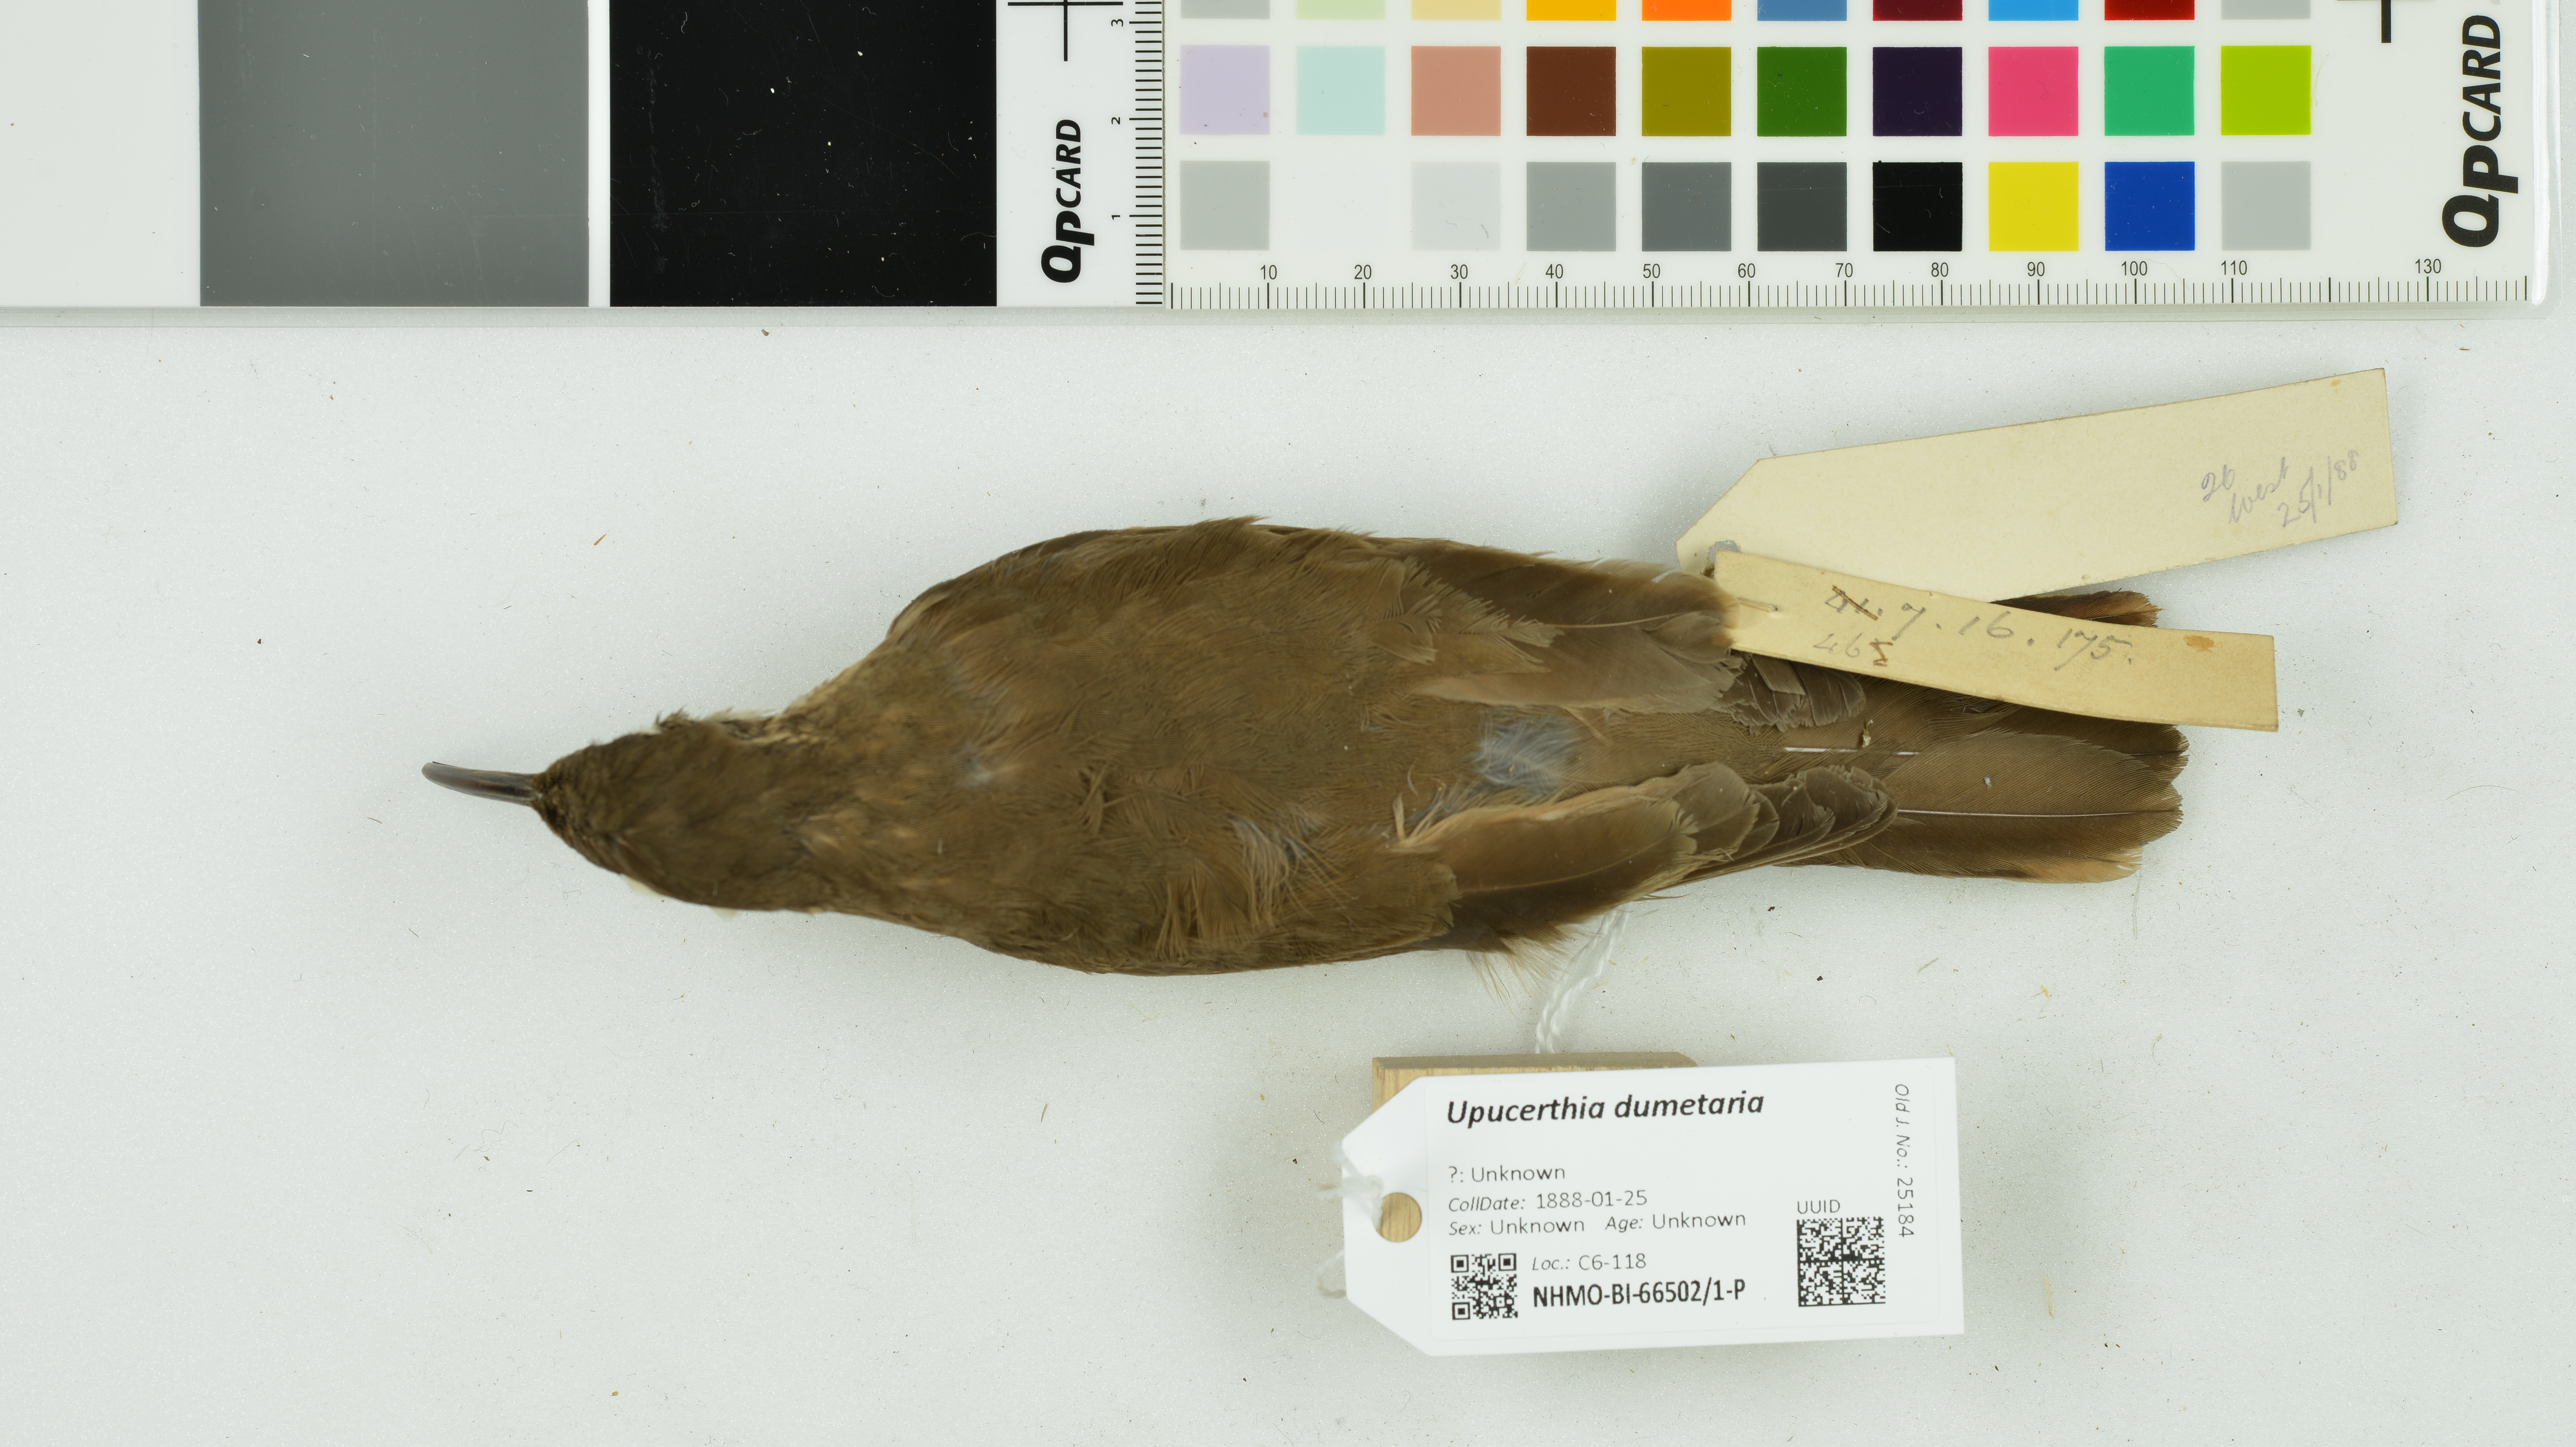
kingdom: Animalia
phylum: Chordata
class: Aves
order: Passeriformes
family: Furnariidae
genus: Upucerthia
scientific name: Upucerthia dumetaria
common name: Scale-throated earthcreeper
